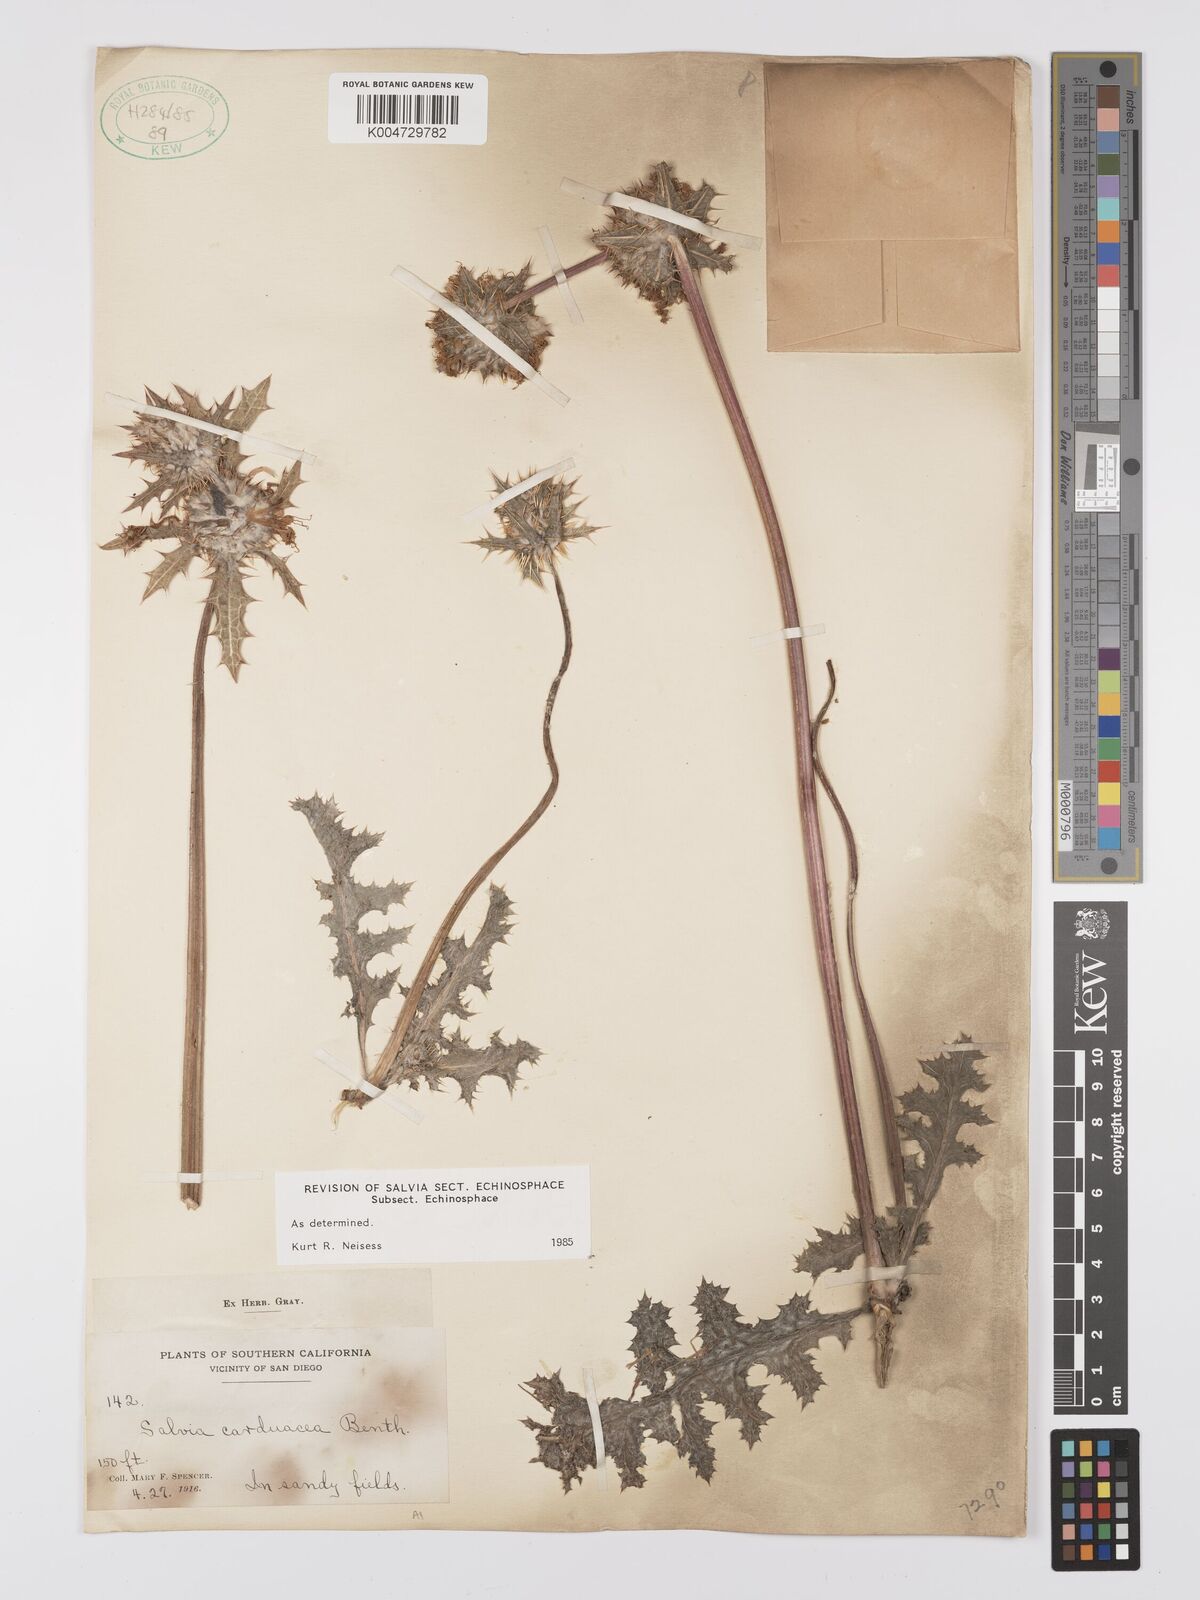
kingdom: Plantae
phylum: Tracheophyta
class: Magnoliopsida
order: Lamiales
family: Lamiaceae
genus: Salvia
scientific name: Salvia carduacea
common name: Thistle sage
